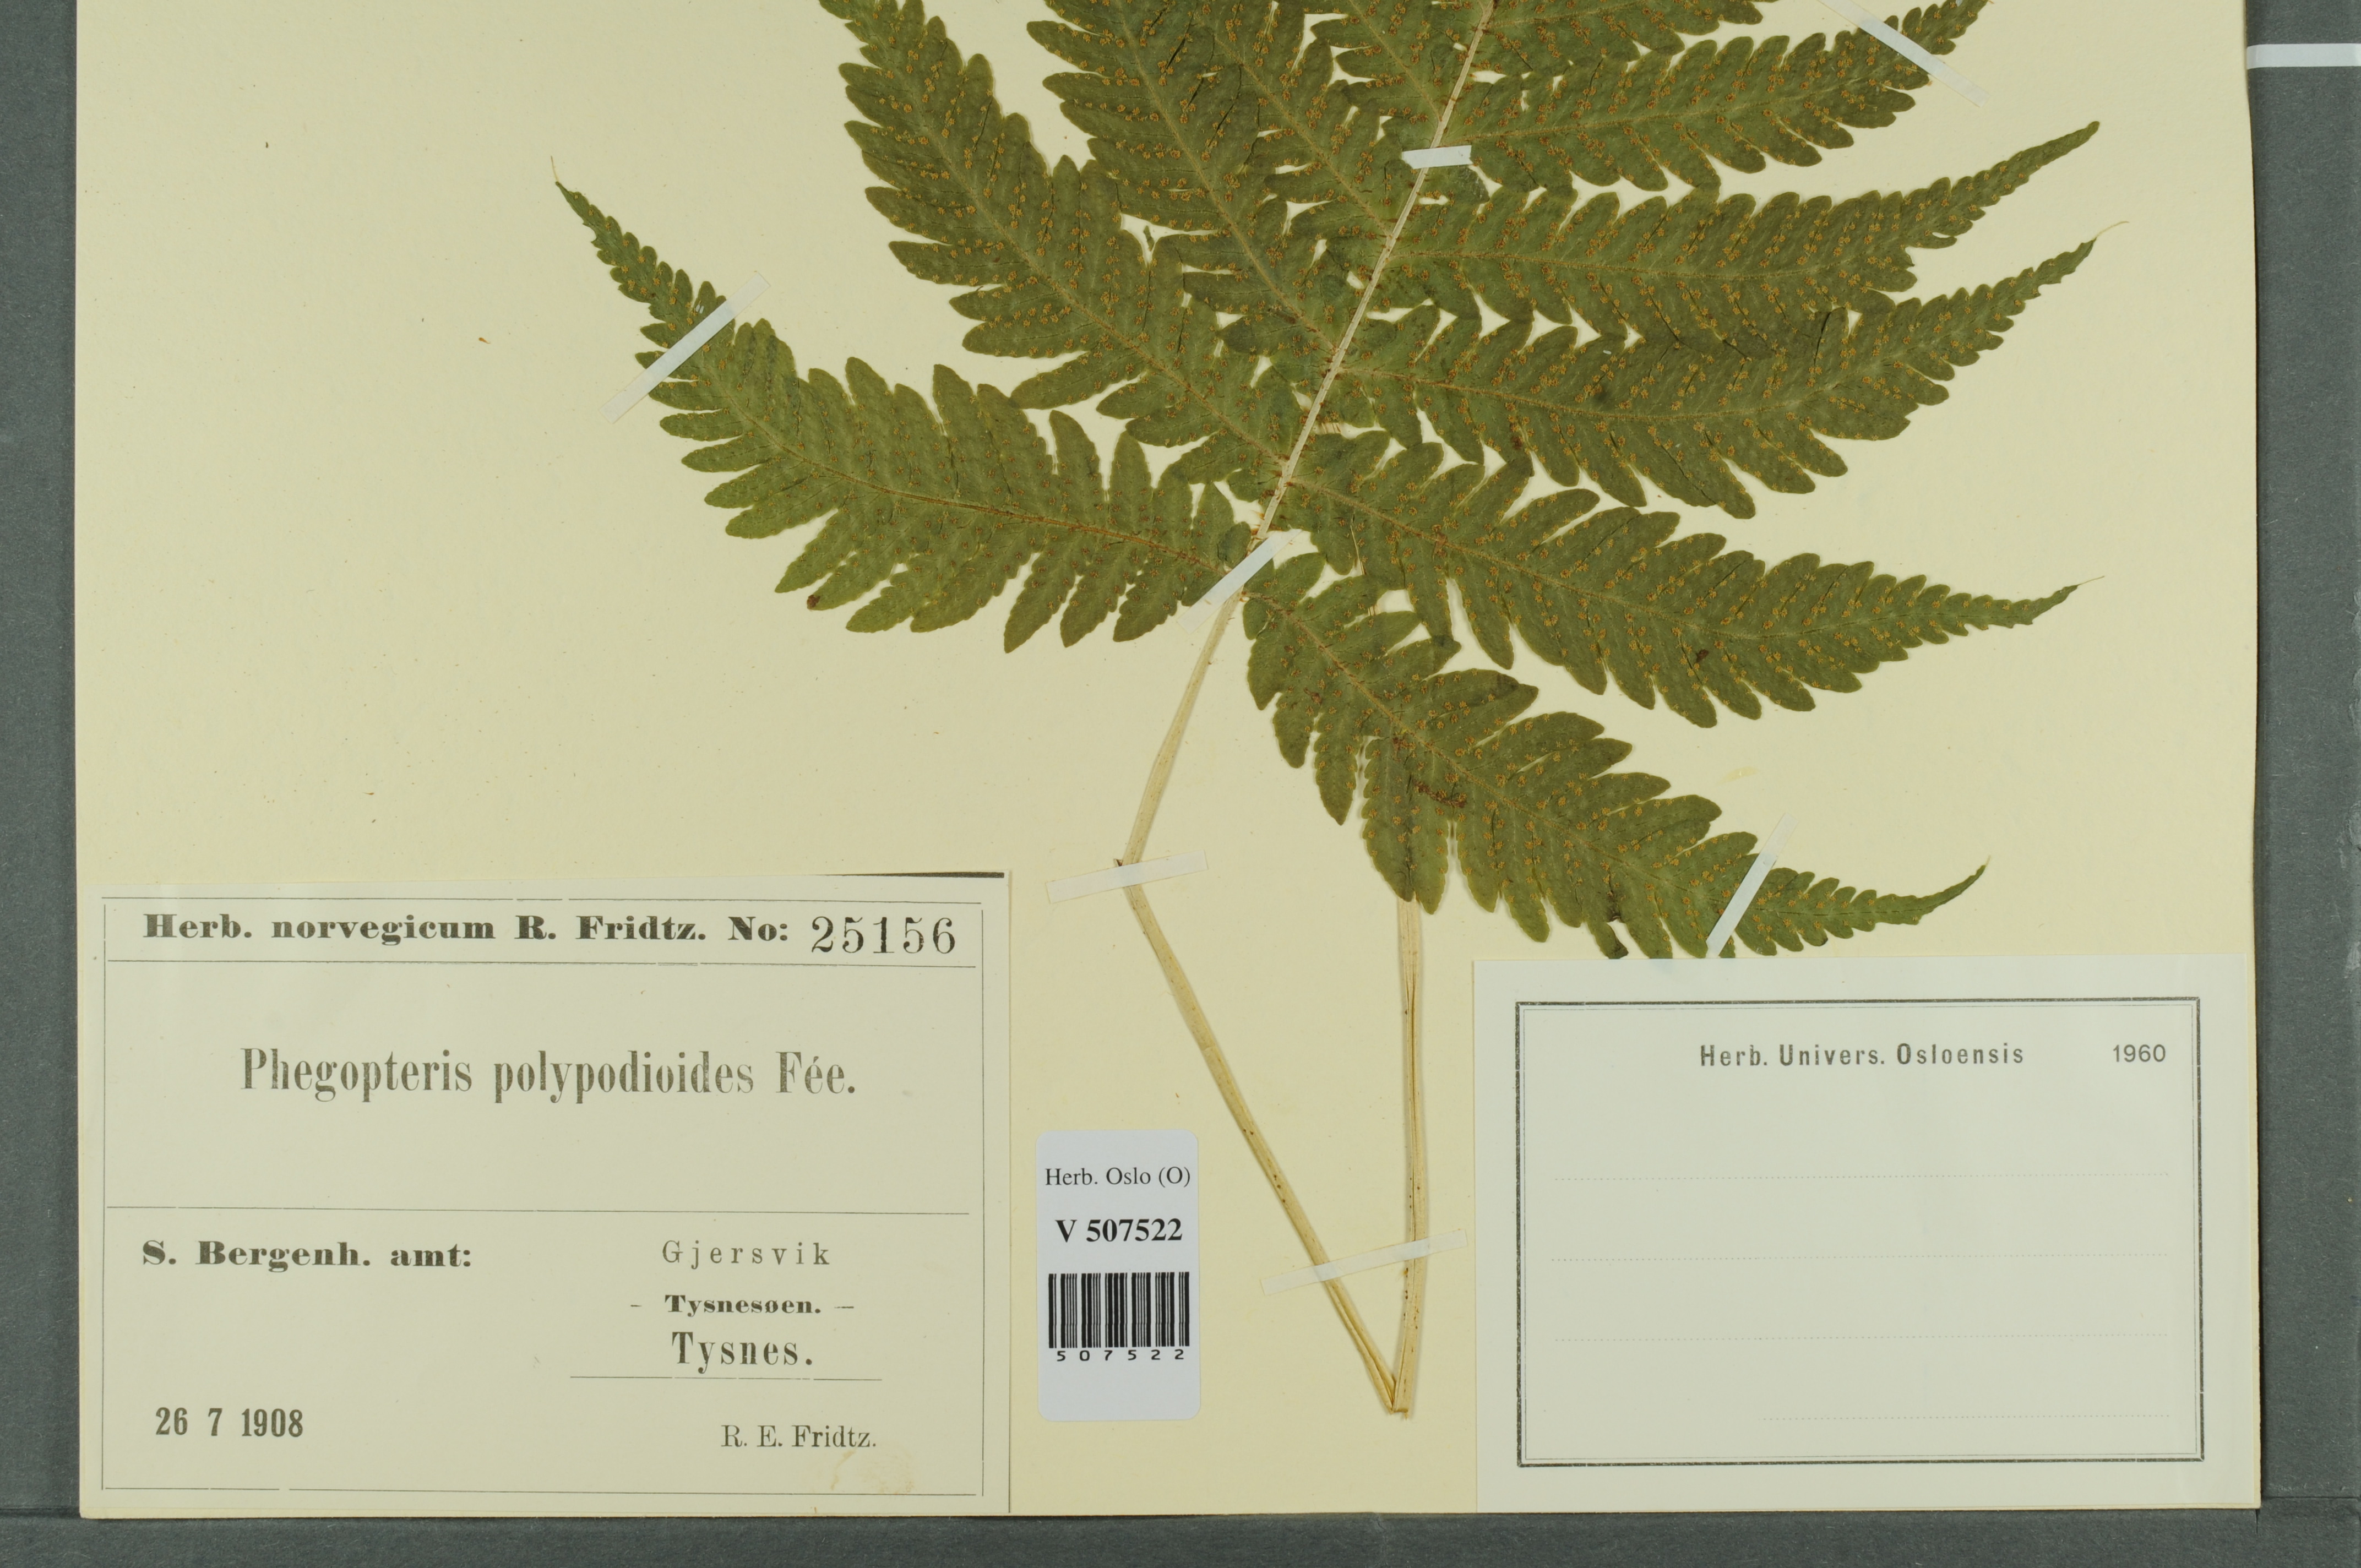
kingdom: Plantae
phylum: Tracheophyta
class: Polypodiopsida
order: Polypodiales
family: Thelypteridaceae
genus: Phegopteris
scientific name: Phegopteris connectilis
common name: Beech fern
